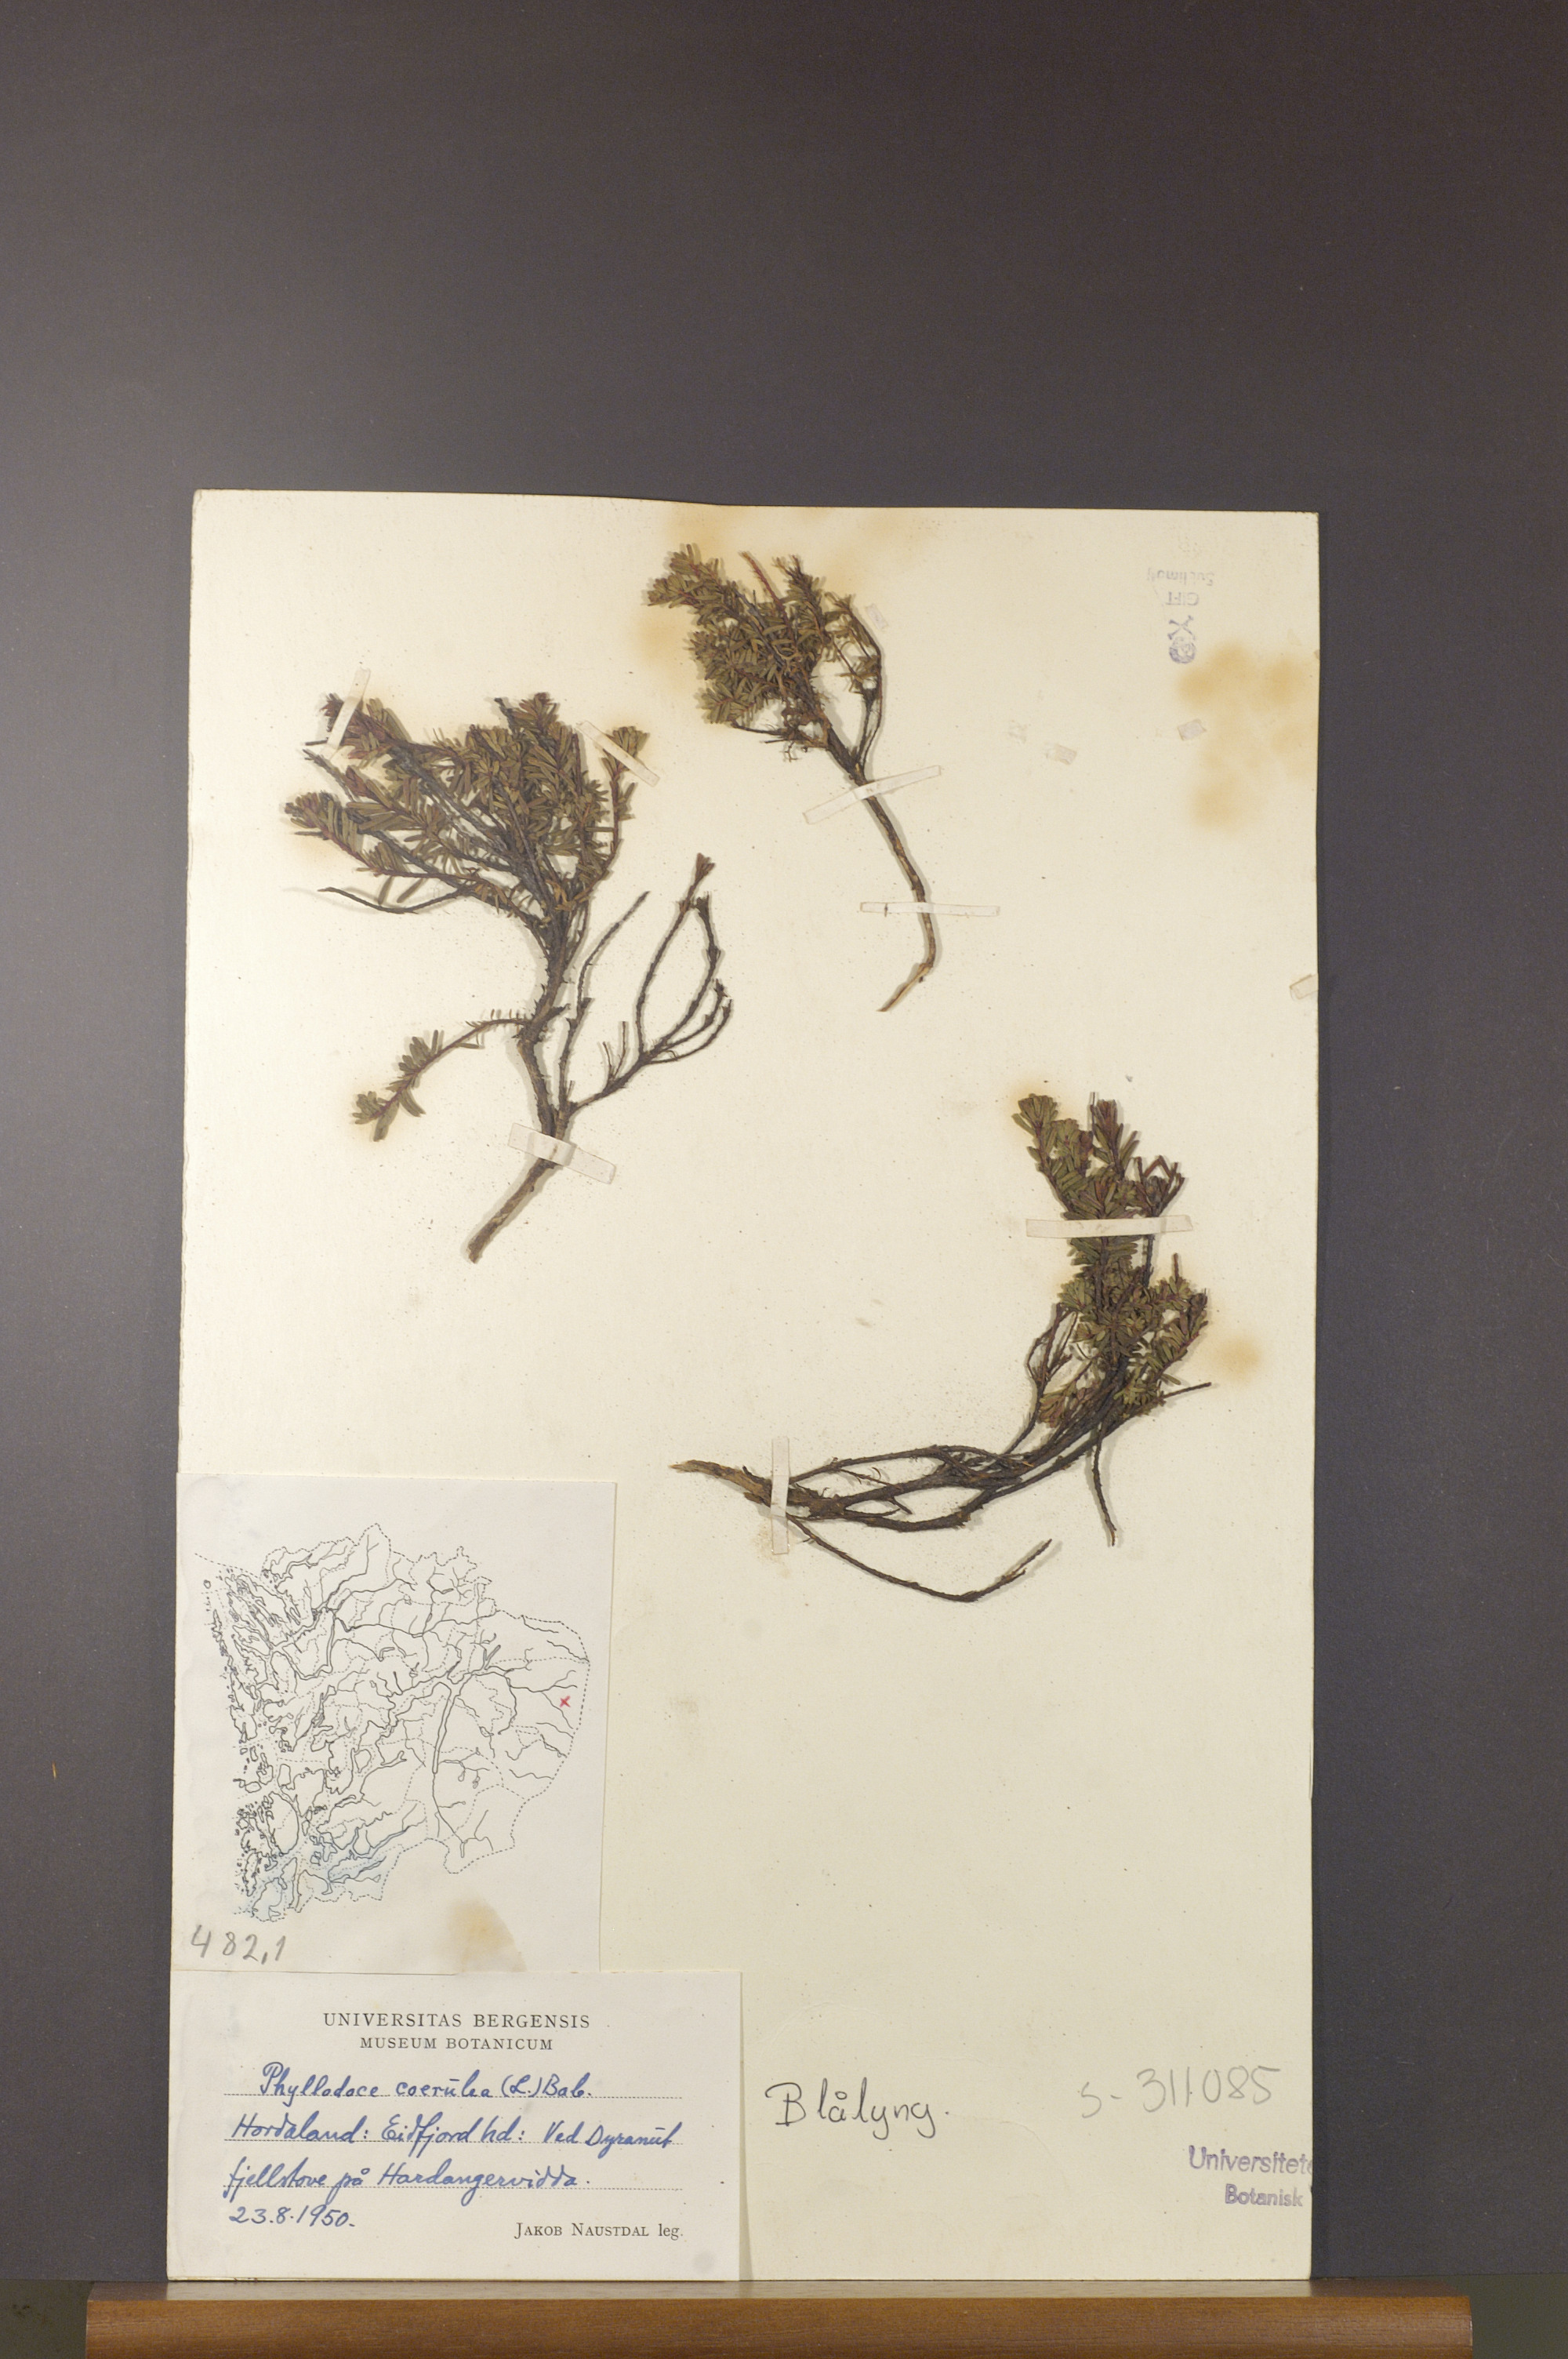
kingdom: Plantae
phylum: Tracheophyta
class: Magnoliopsida
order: Ericales
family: Ericaceae
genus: Phyllodoce
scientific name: Phyllodoce caerulea
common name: Blue heath
